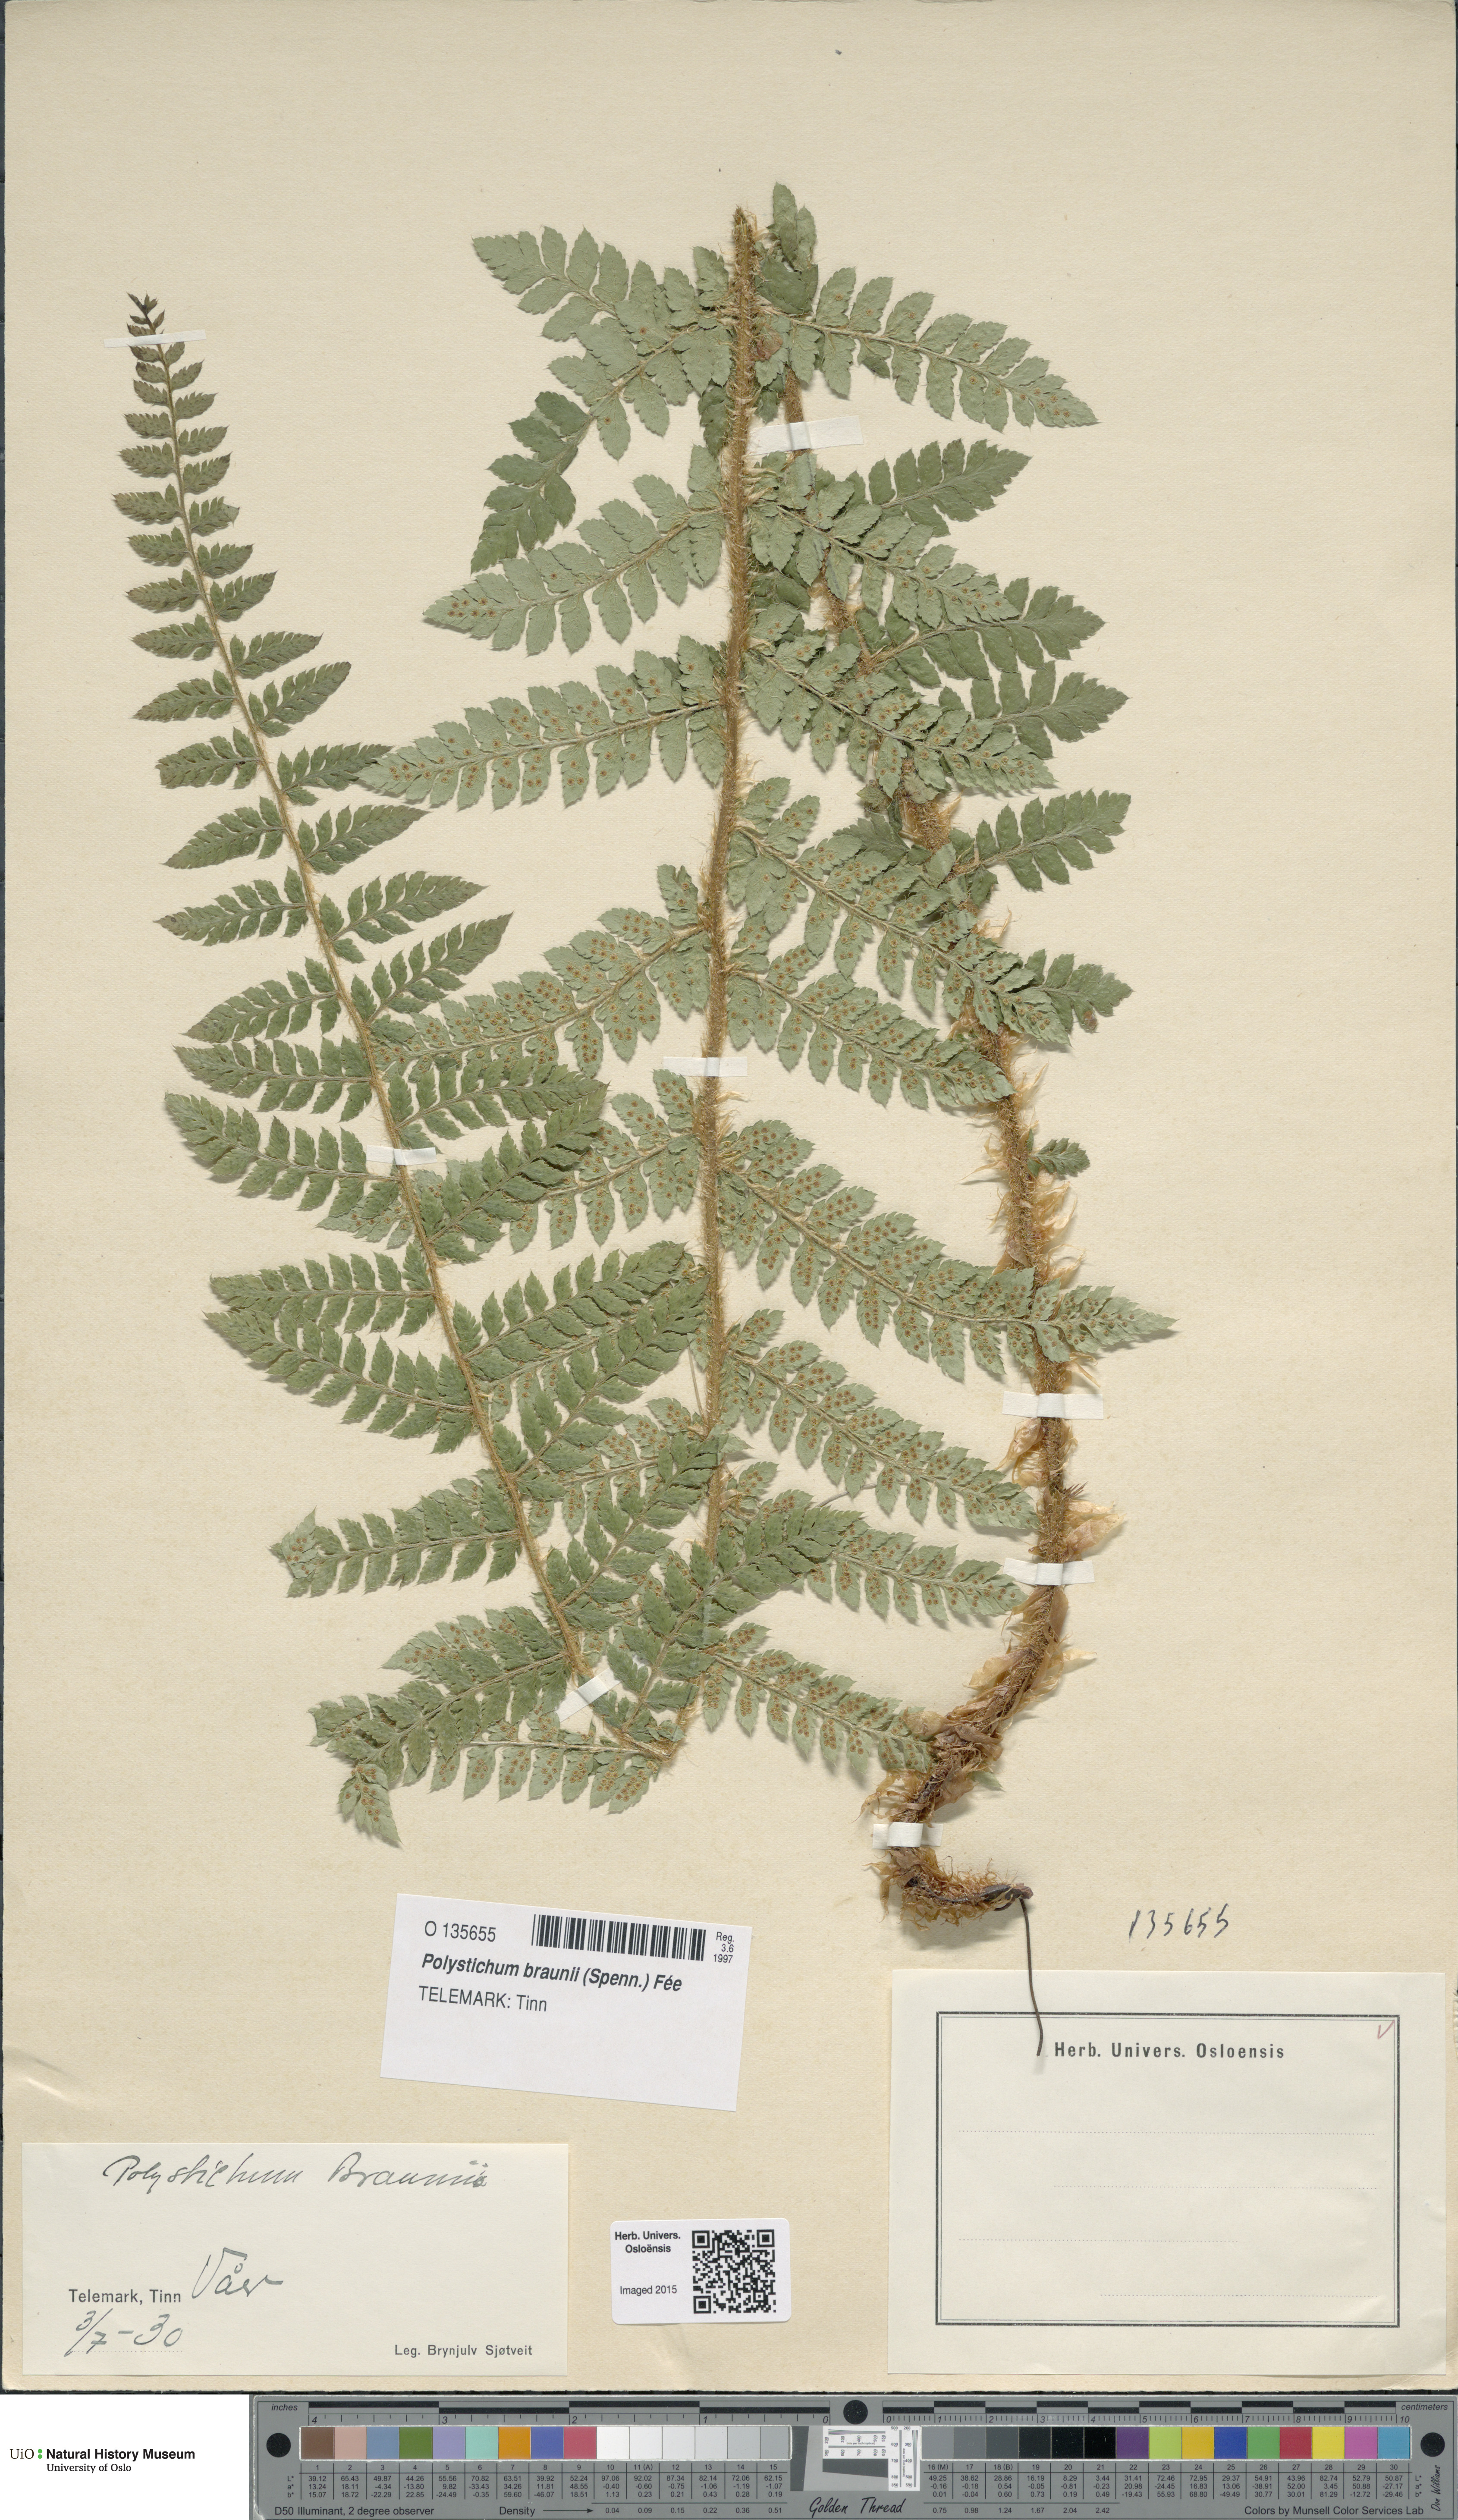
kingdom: Plantae
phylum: Tracheophyta
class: Polypodiopsida
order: Polypodiales
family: Dryopteridaceae
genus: Polystichum
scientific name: Polystichum braunii
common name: Braun's holly fern
